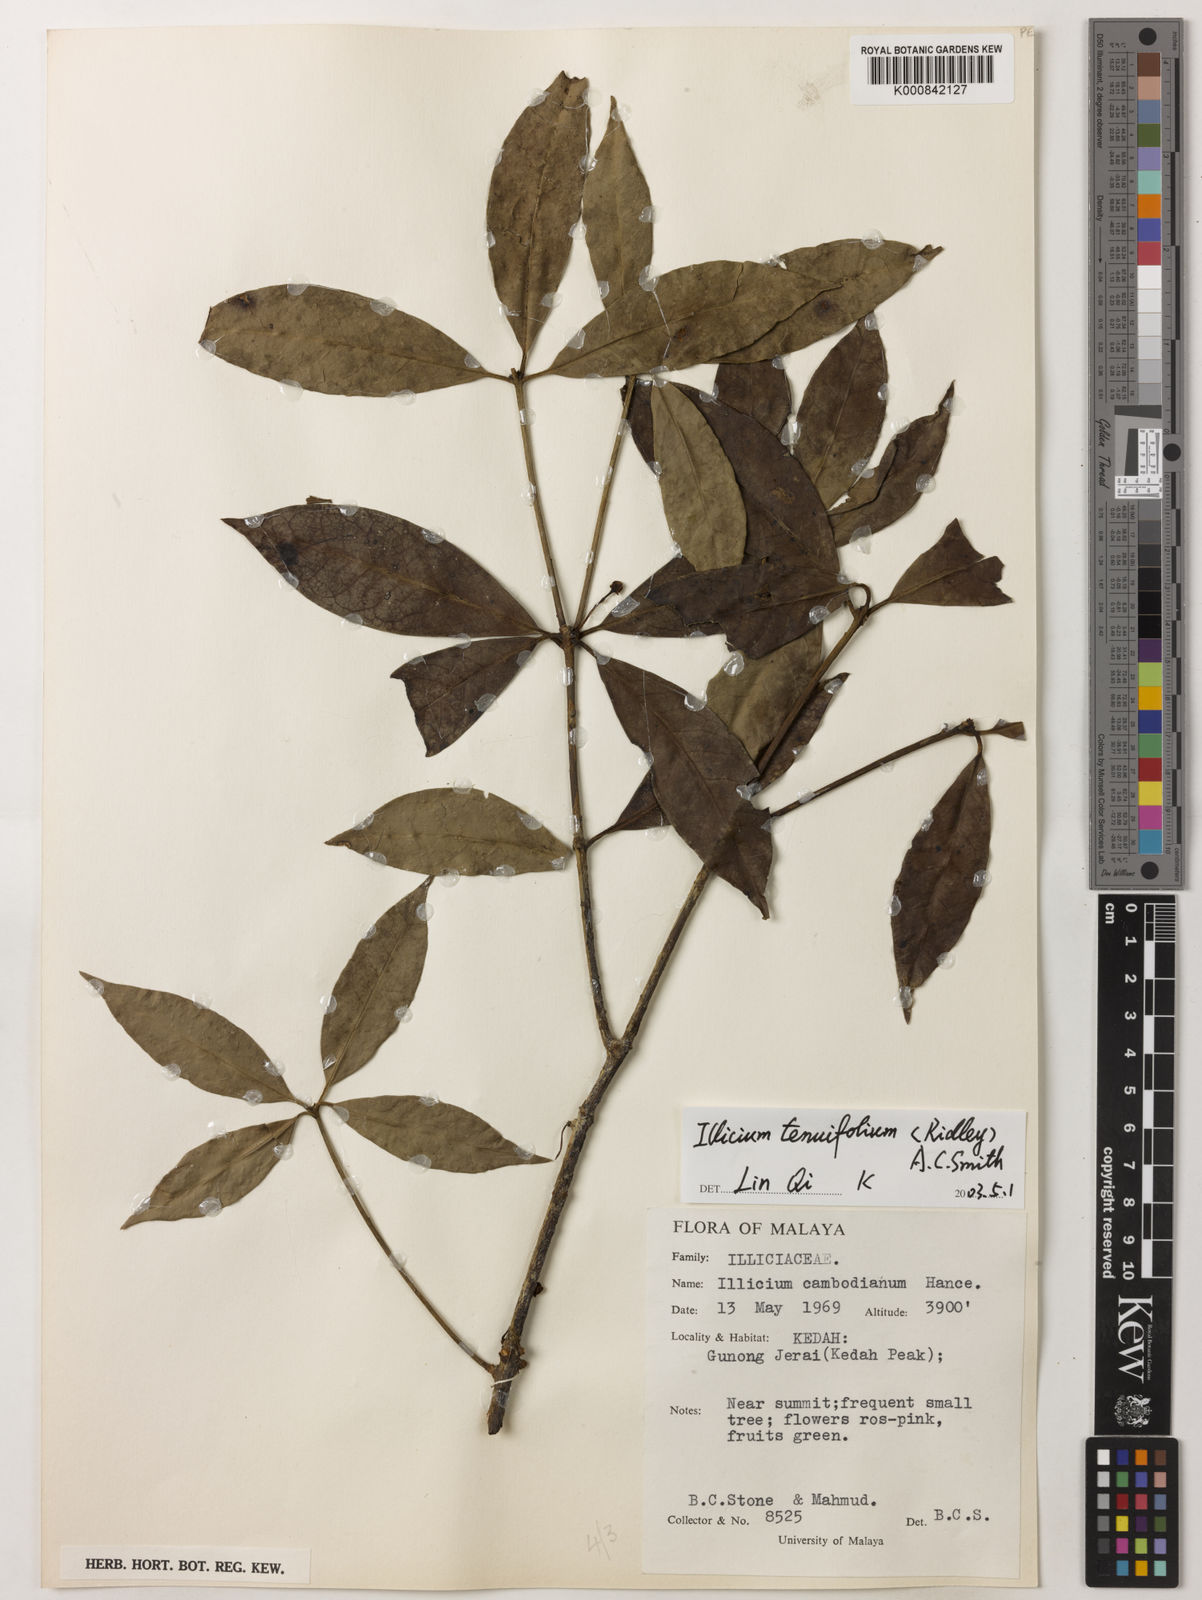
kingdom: Plantae
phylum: Tracheophyta
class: Magnoliopsida
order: Austrobaileyales
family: Schisandraceae
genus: Illicium
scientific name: Illicium tenuifolium
